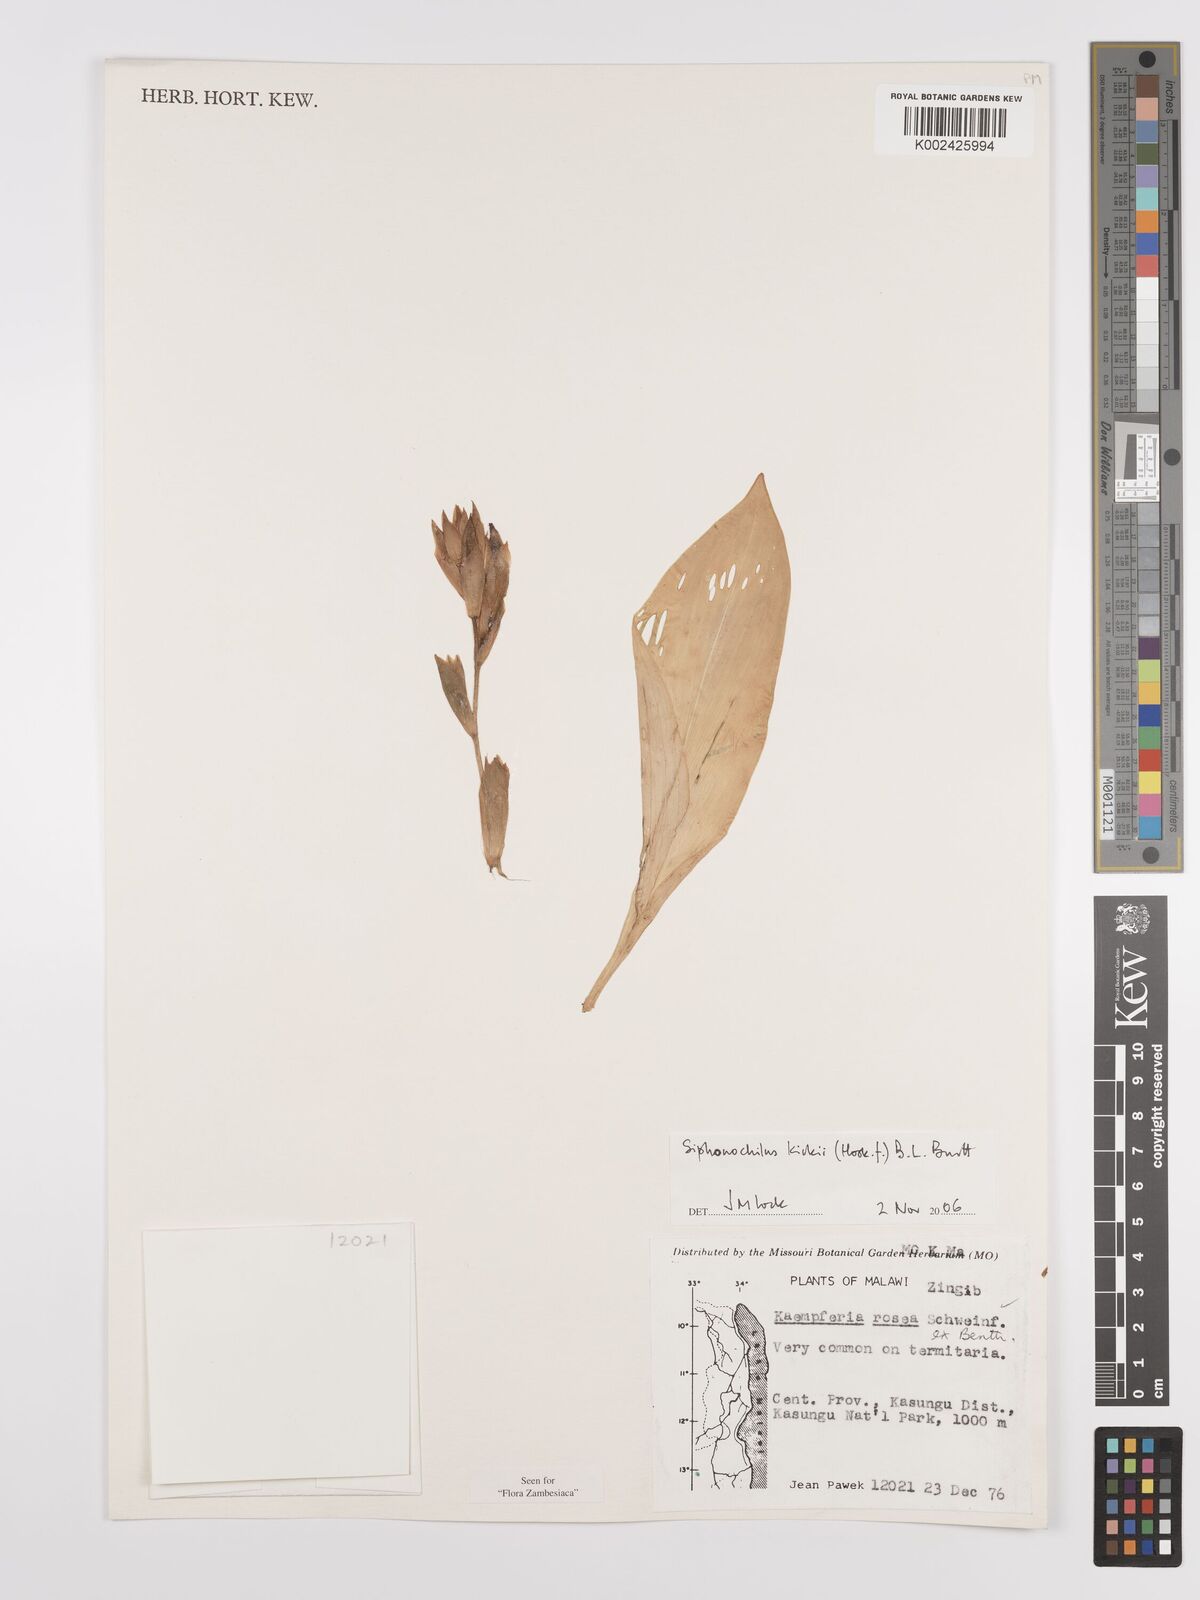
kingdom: Plantae
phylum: Tracheophyta
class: Liliopsida
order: Zingiberales
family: Zingiberaceae
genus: Siphonochilus
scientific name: Siphonochilus kirkii
